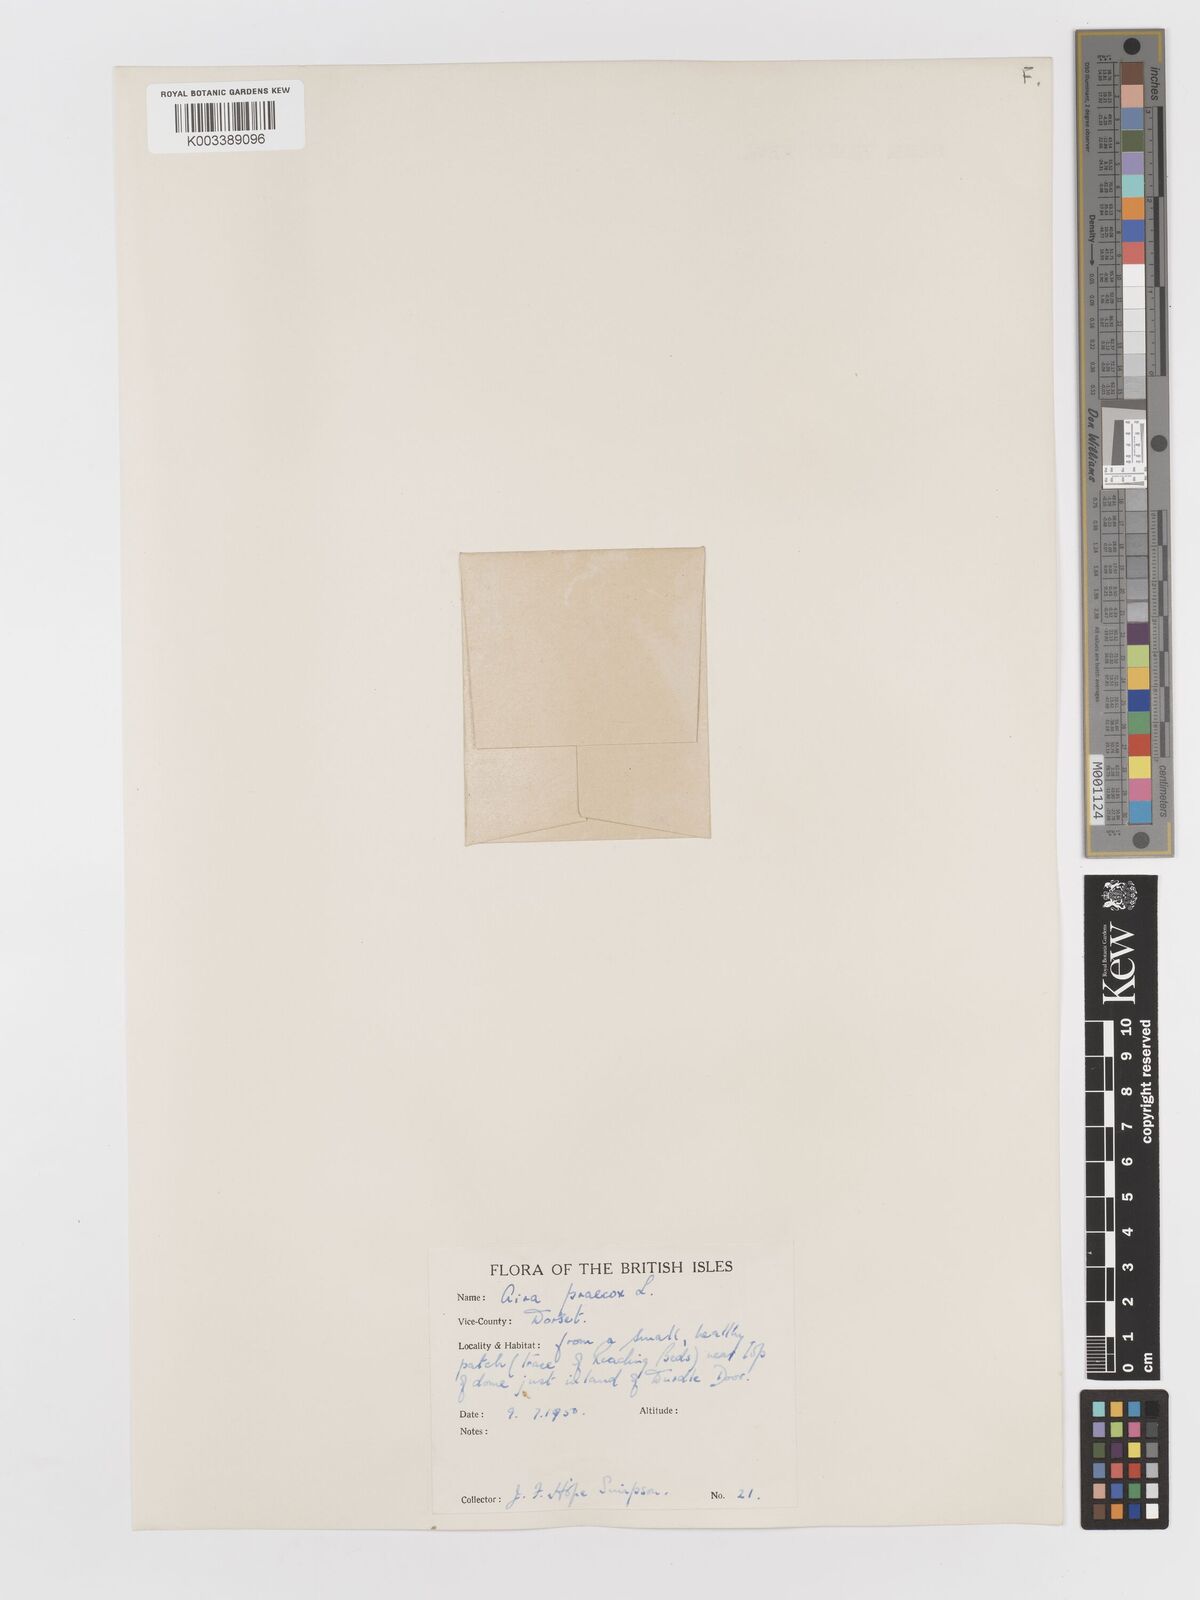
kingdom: Plantae
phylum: Tracheophyta
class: Liliopsida
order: Poales
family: Poaceae
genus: Aira
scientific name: Aira praecox
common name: Early hair-grass
